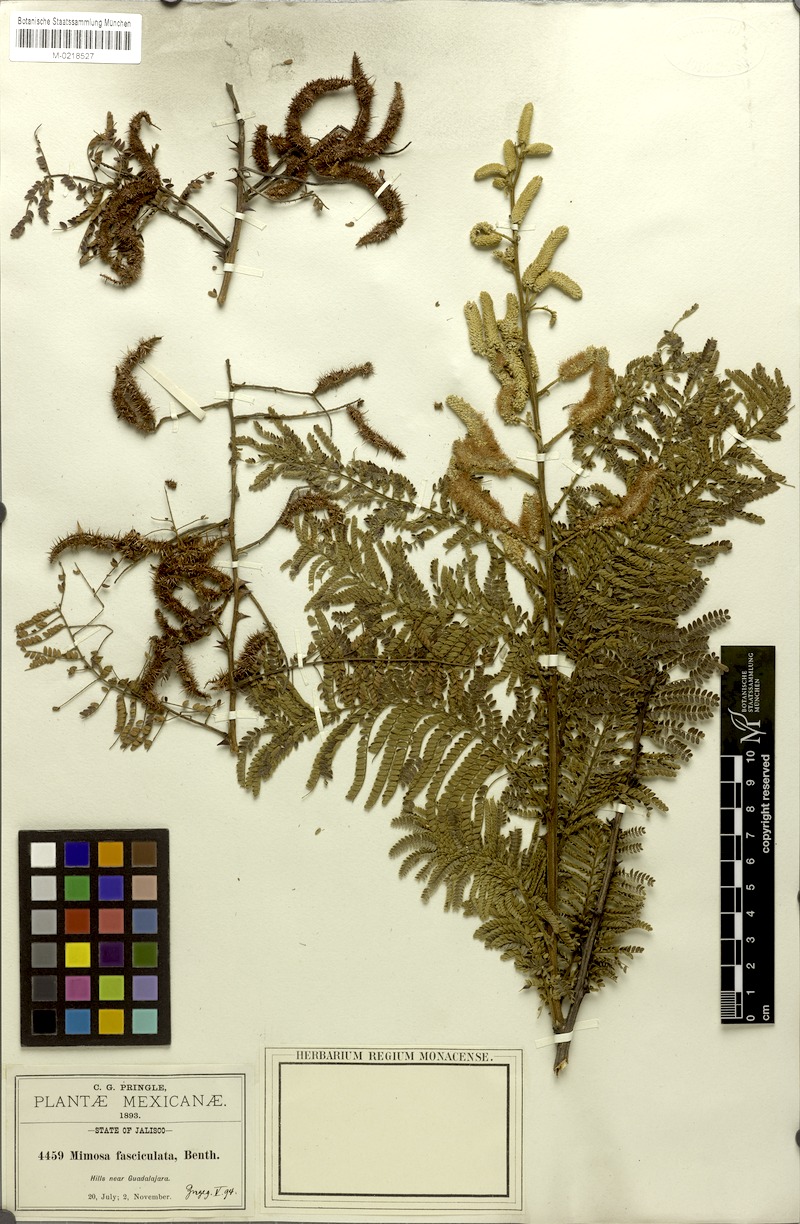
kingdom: Plantae
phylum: Tracheophyta
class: Magnoliopsida
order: Fabales
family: Fabaceae
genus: Mimosa
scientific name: Mimosa rhododactyla
